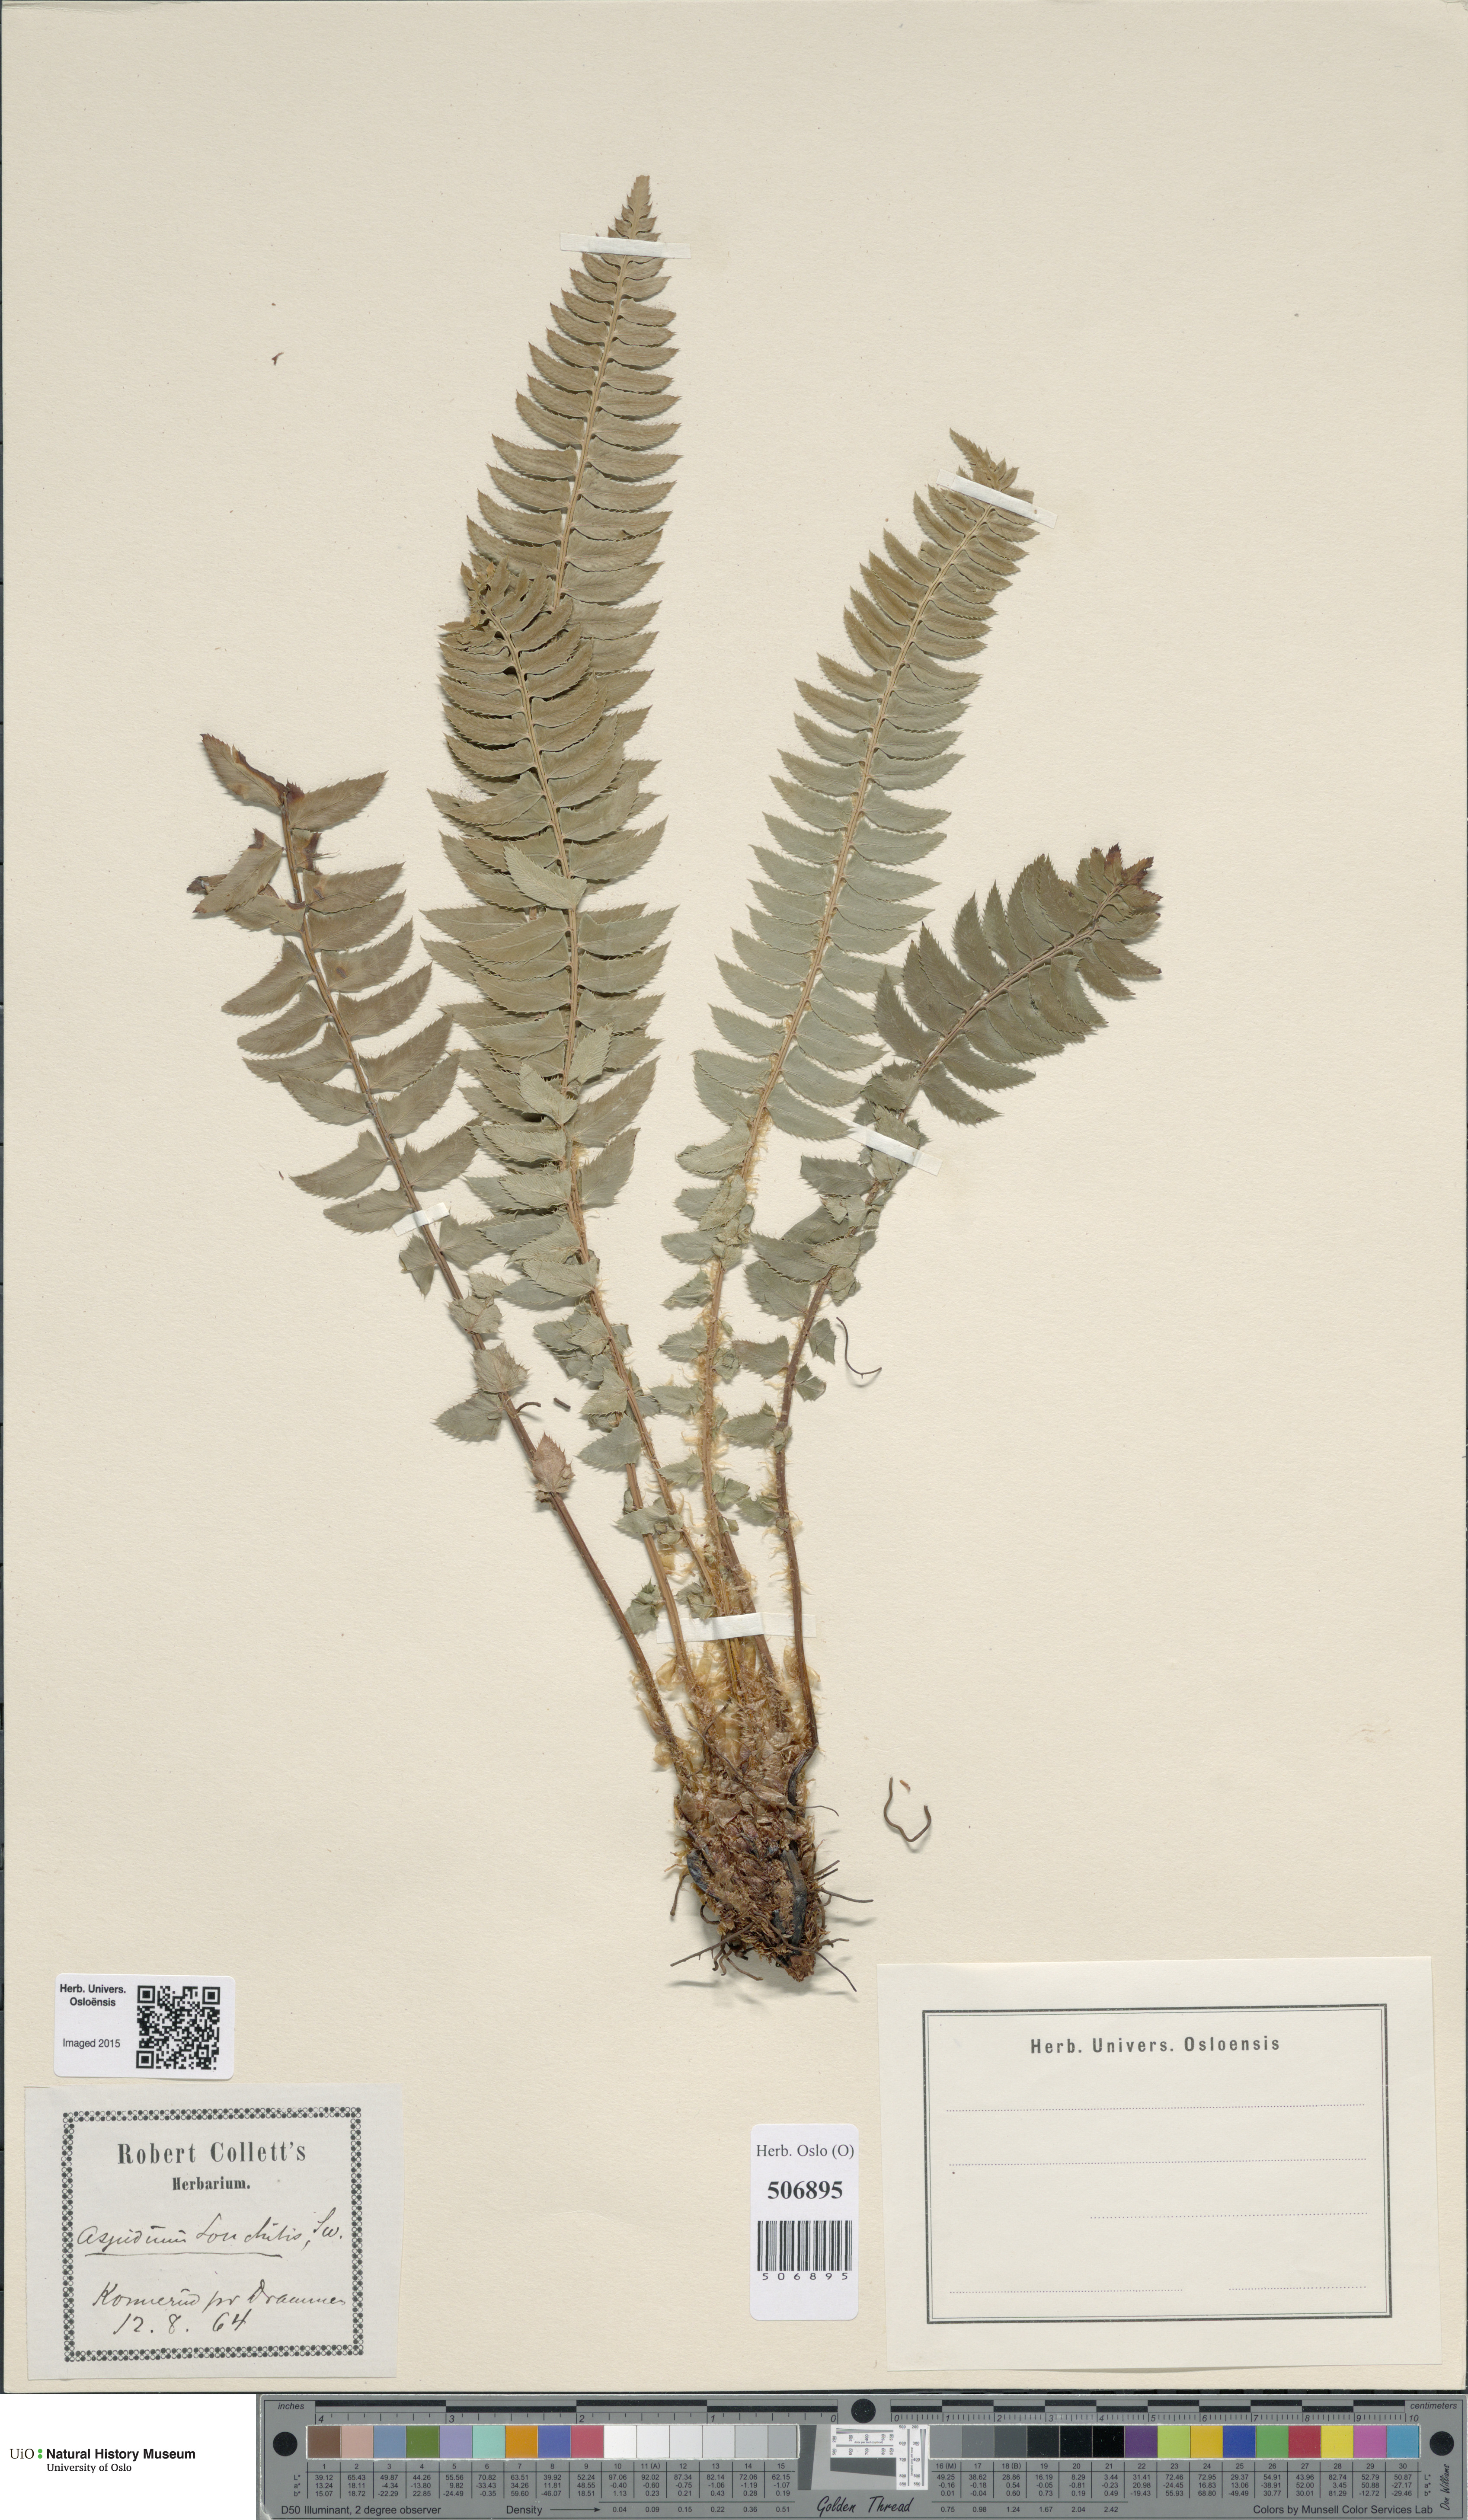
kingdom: Plantae
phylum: Tracheophyta
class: Polypodiopsida
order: Polypodiales
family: Dryopteridaceae
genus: Polystichum
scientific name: Polystichum lonchitis
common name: Holly fern
